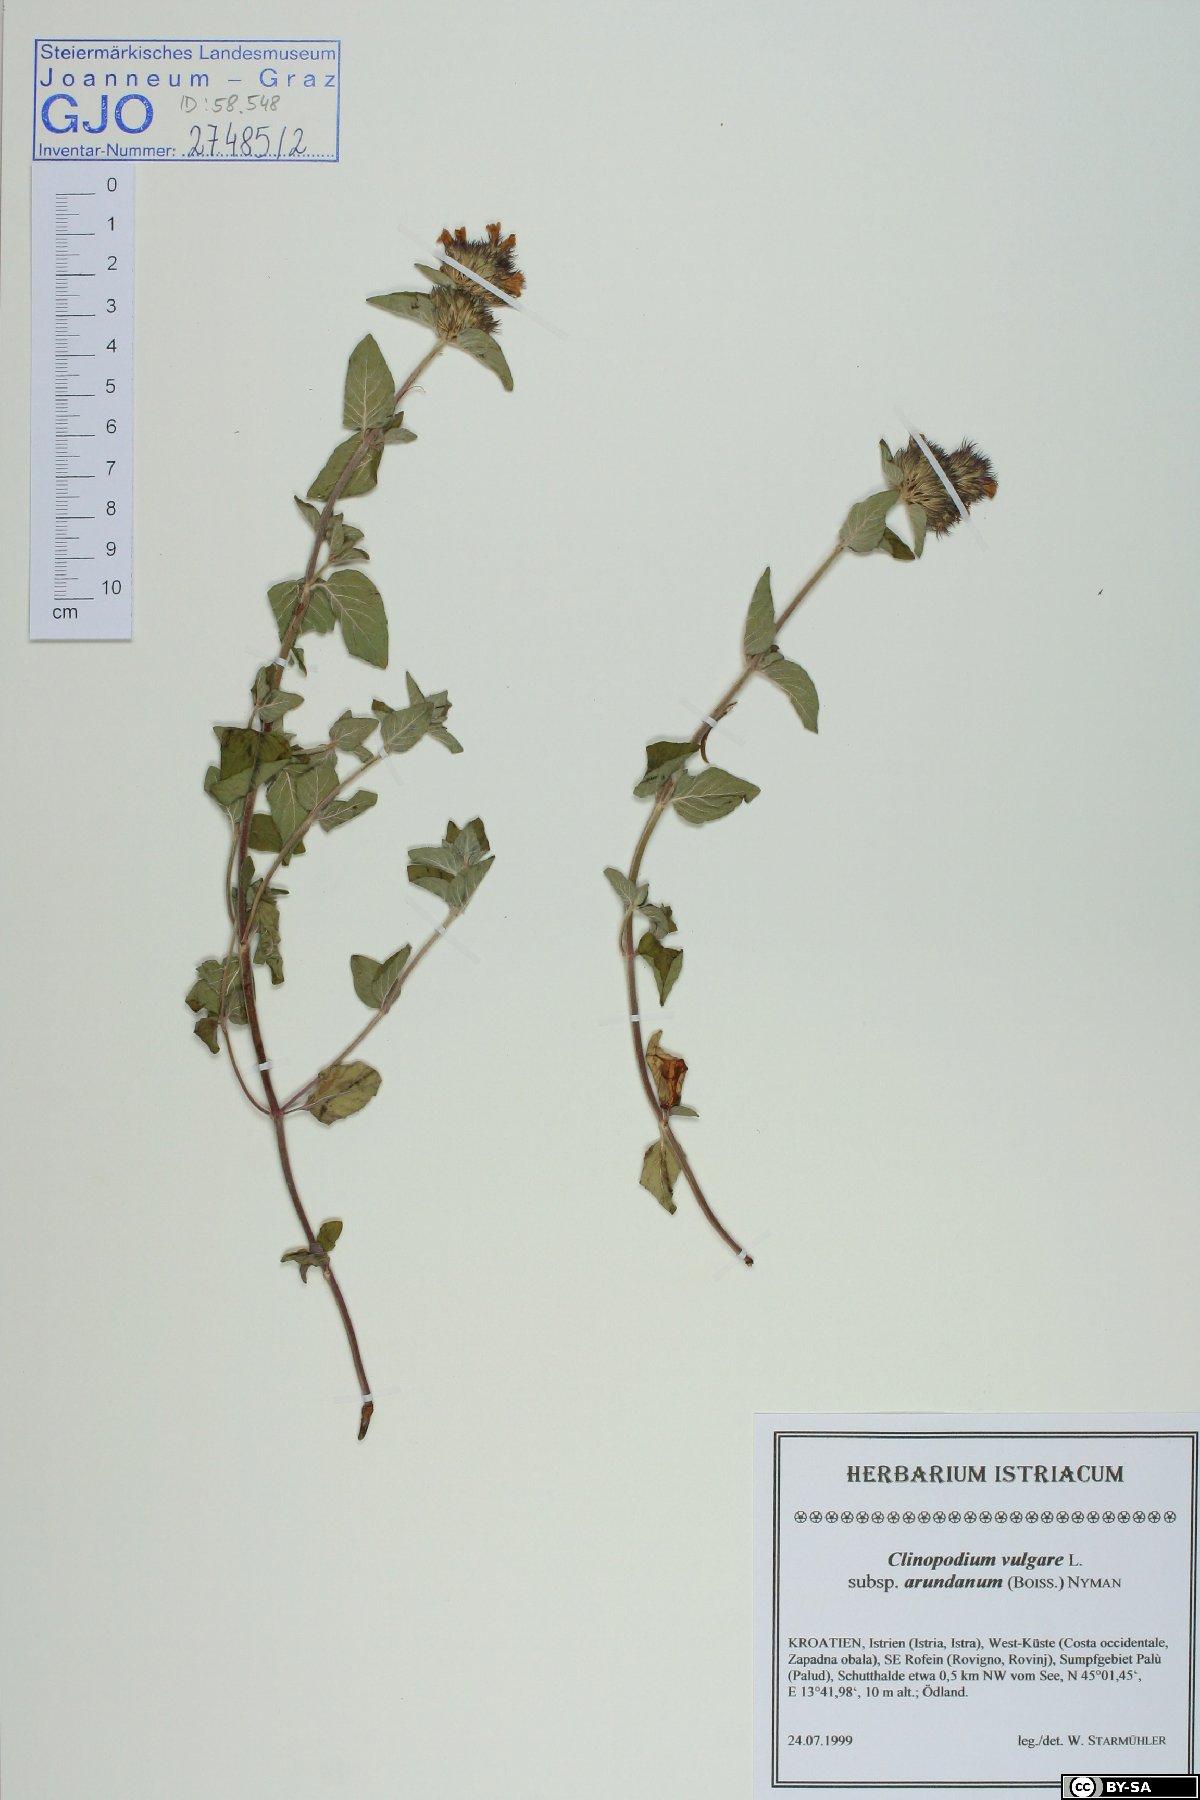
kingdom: Plantae
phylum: Tracheophyta
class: Magnoliopsida
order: Lamiales
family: Lamiaceae
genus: Clinopodium
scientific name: Clinopodium vulgare
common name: Wild basil
